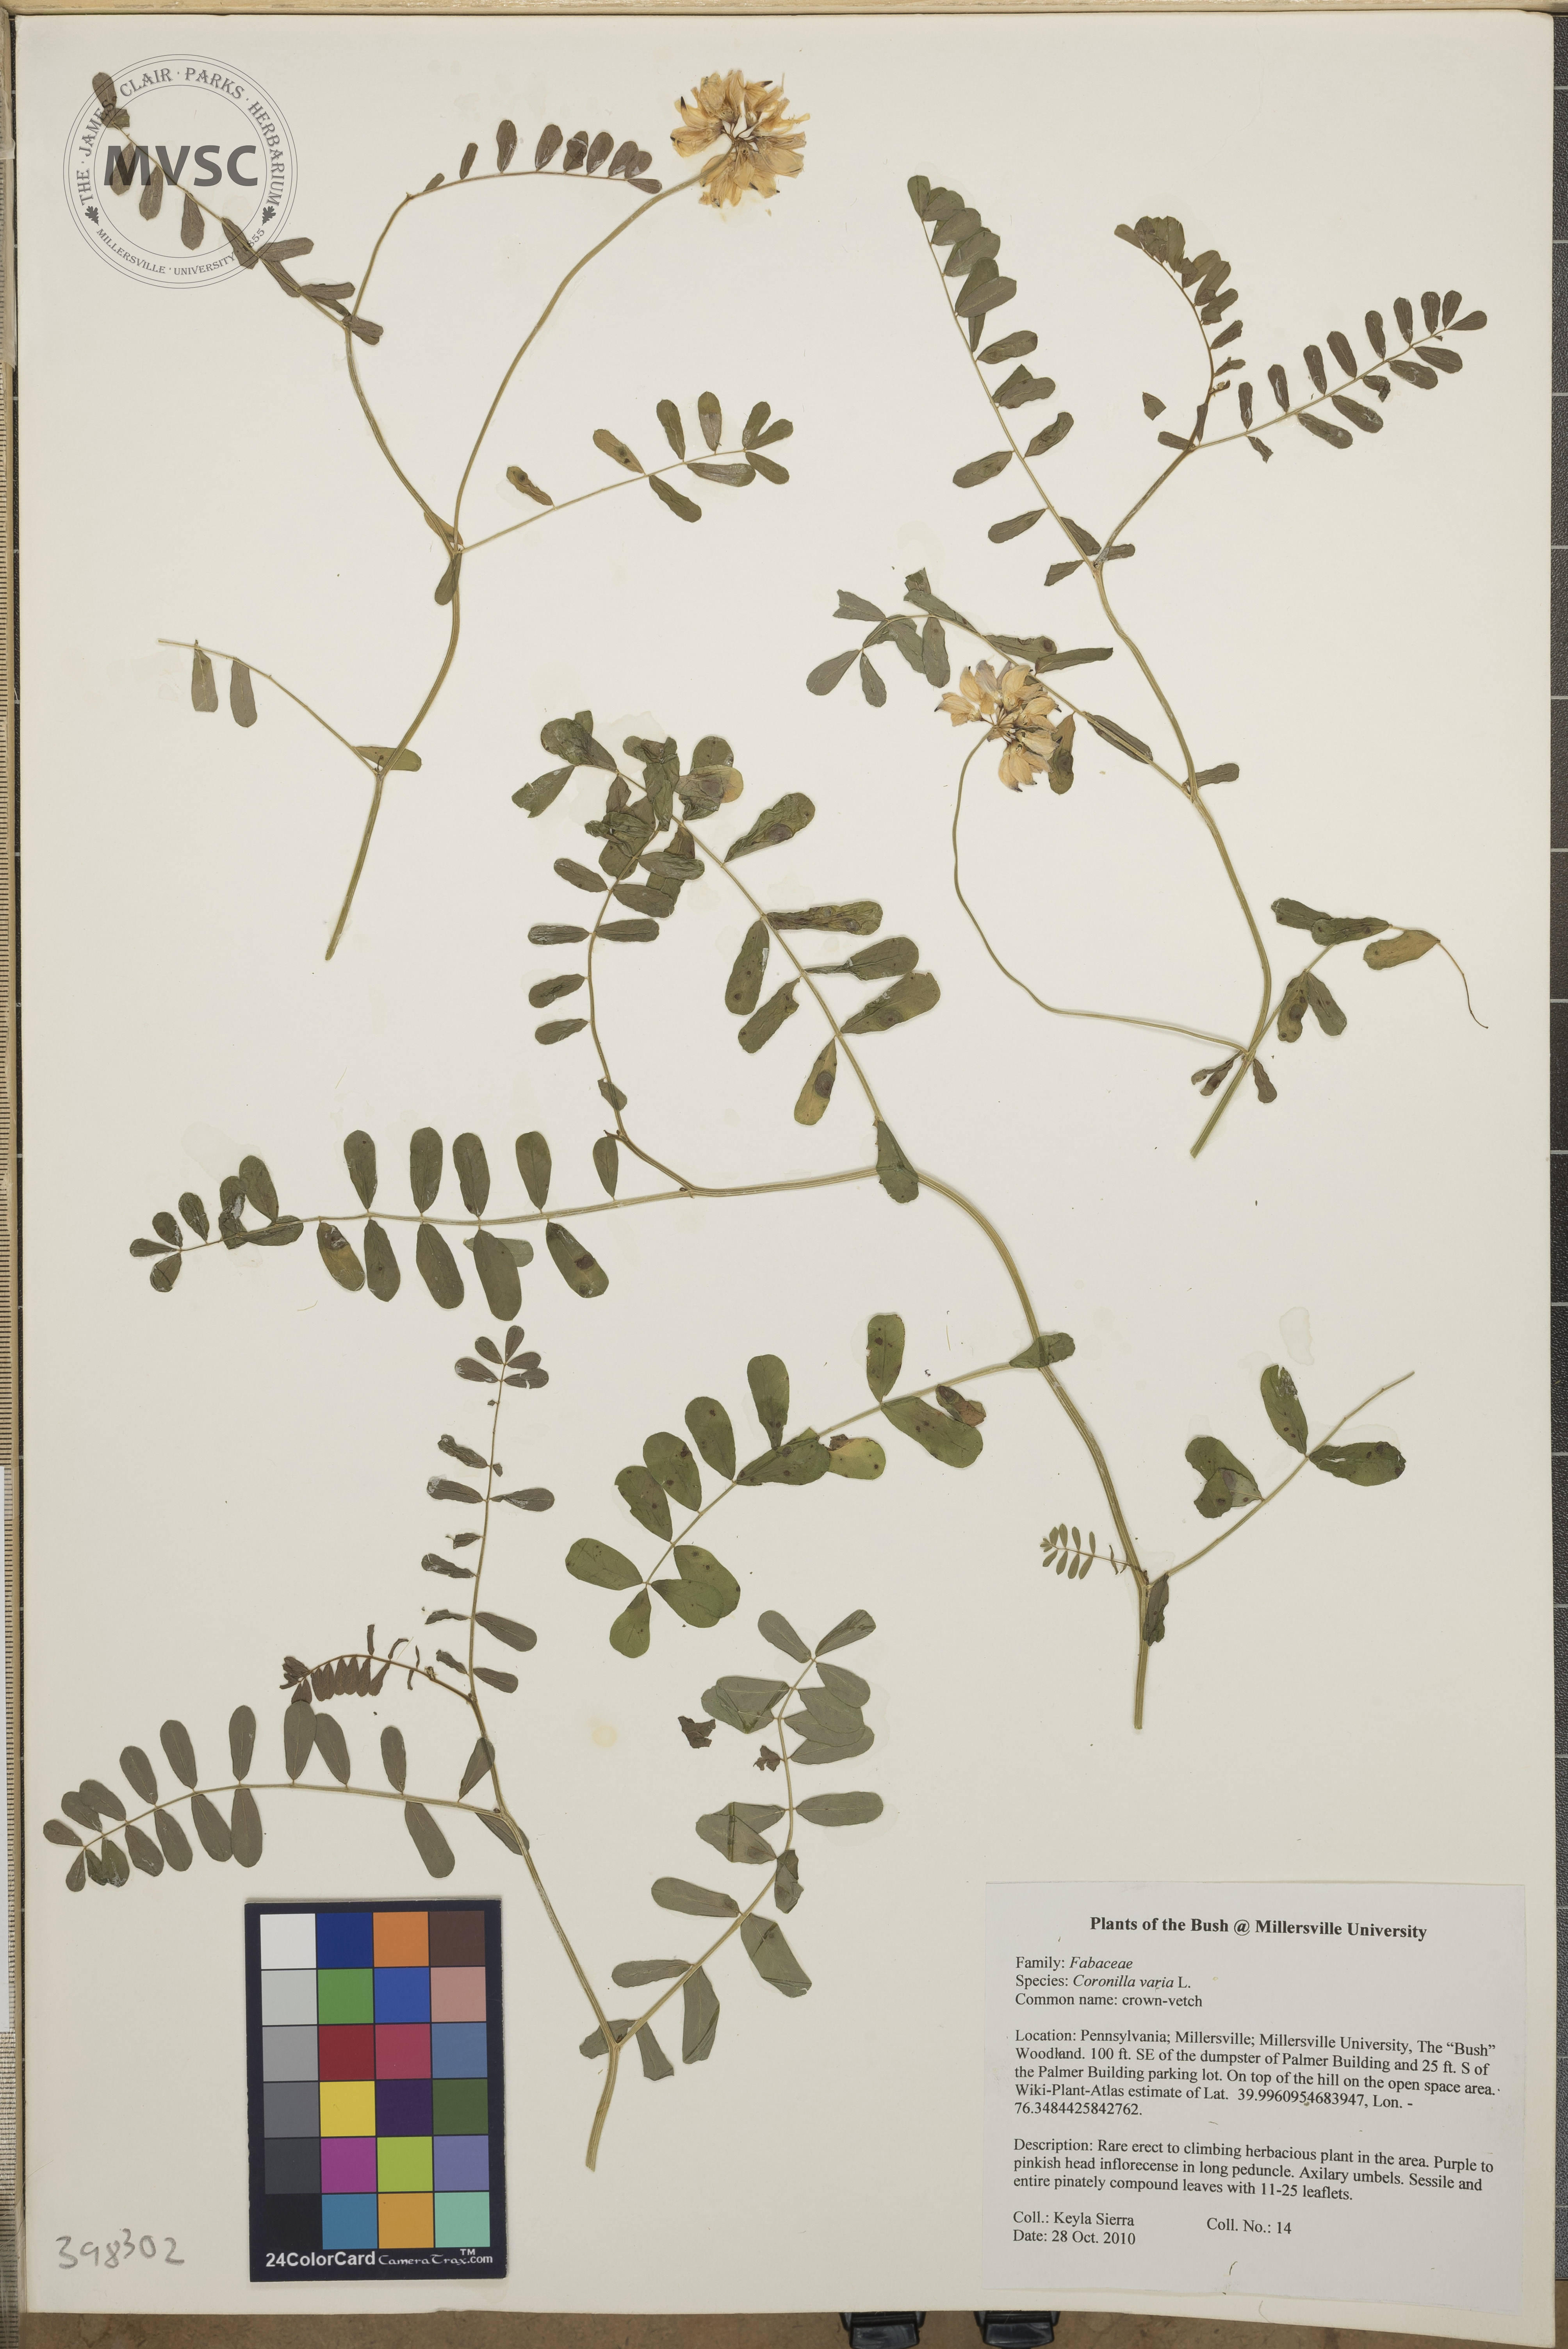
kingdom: Plantae
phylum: Tracheophyta
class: Magnoliopsida
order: Fabales
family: Fabaceae
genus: Coronilla
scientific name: Coronilla varia
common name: Crown-vetch
